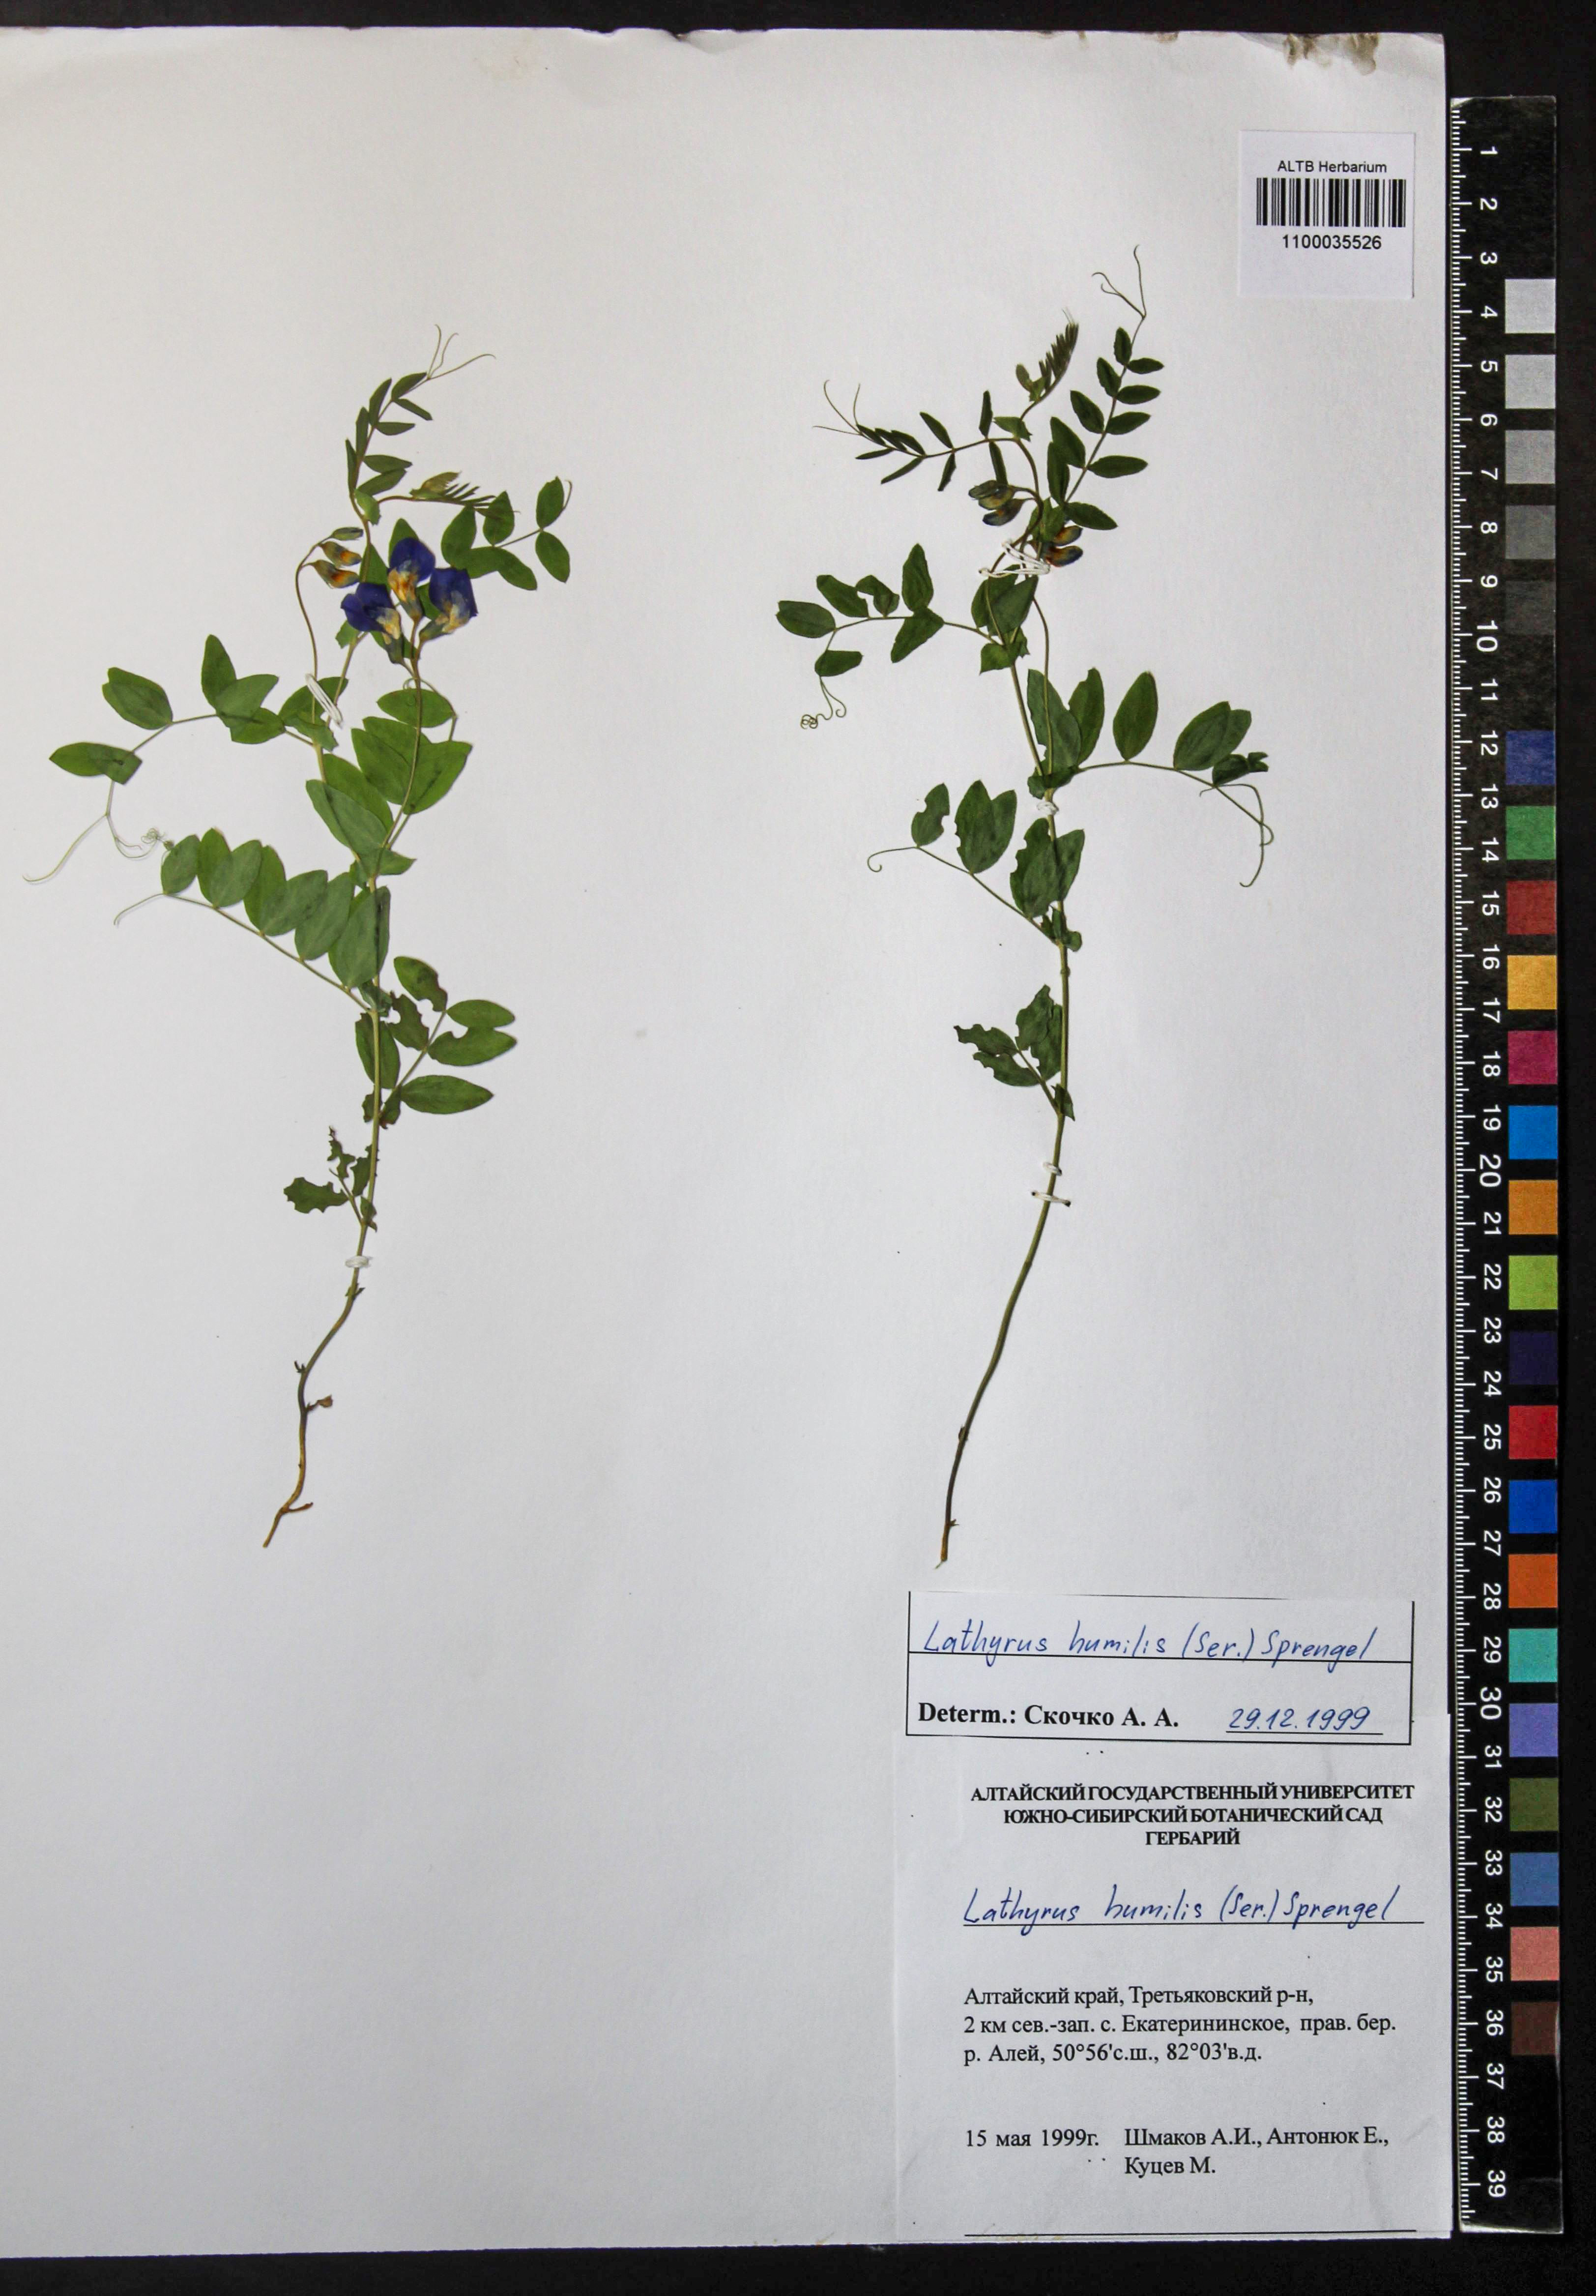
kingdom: Plantae
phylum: Tracheophyta
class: Magnoliopsida
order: Fabales
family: Fabaceae
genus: Lathyrus
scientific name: Lathyrus humilis
